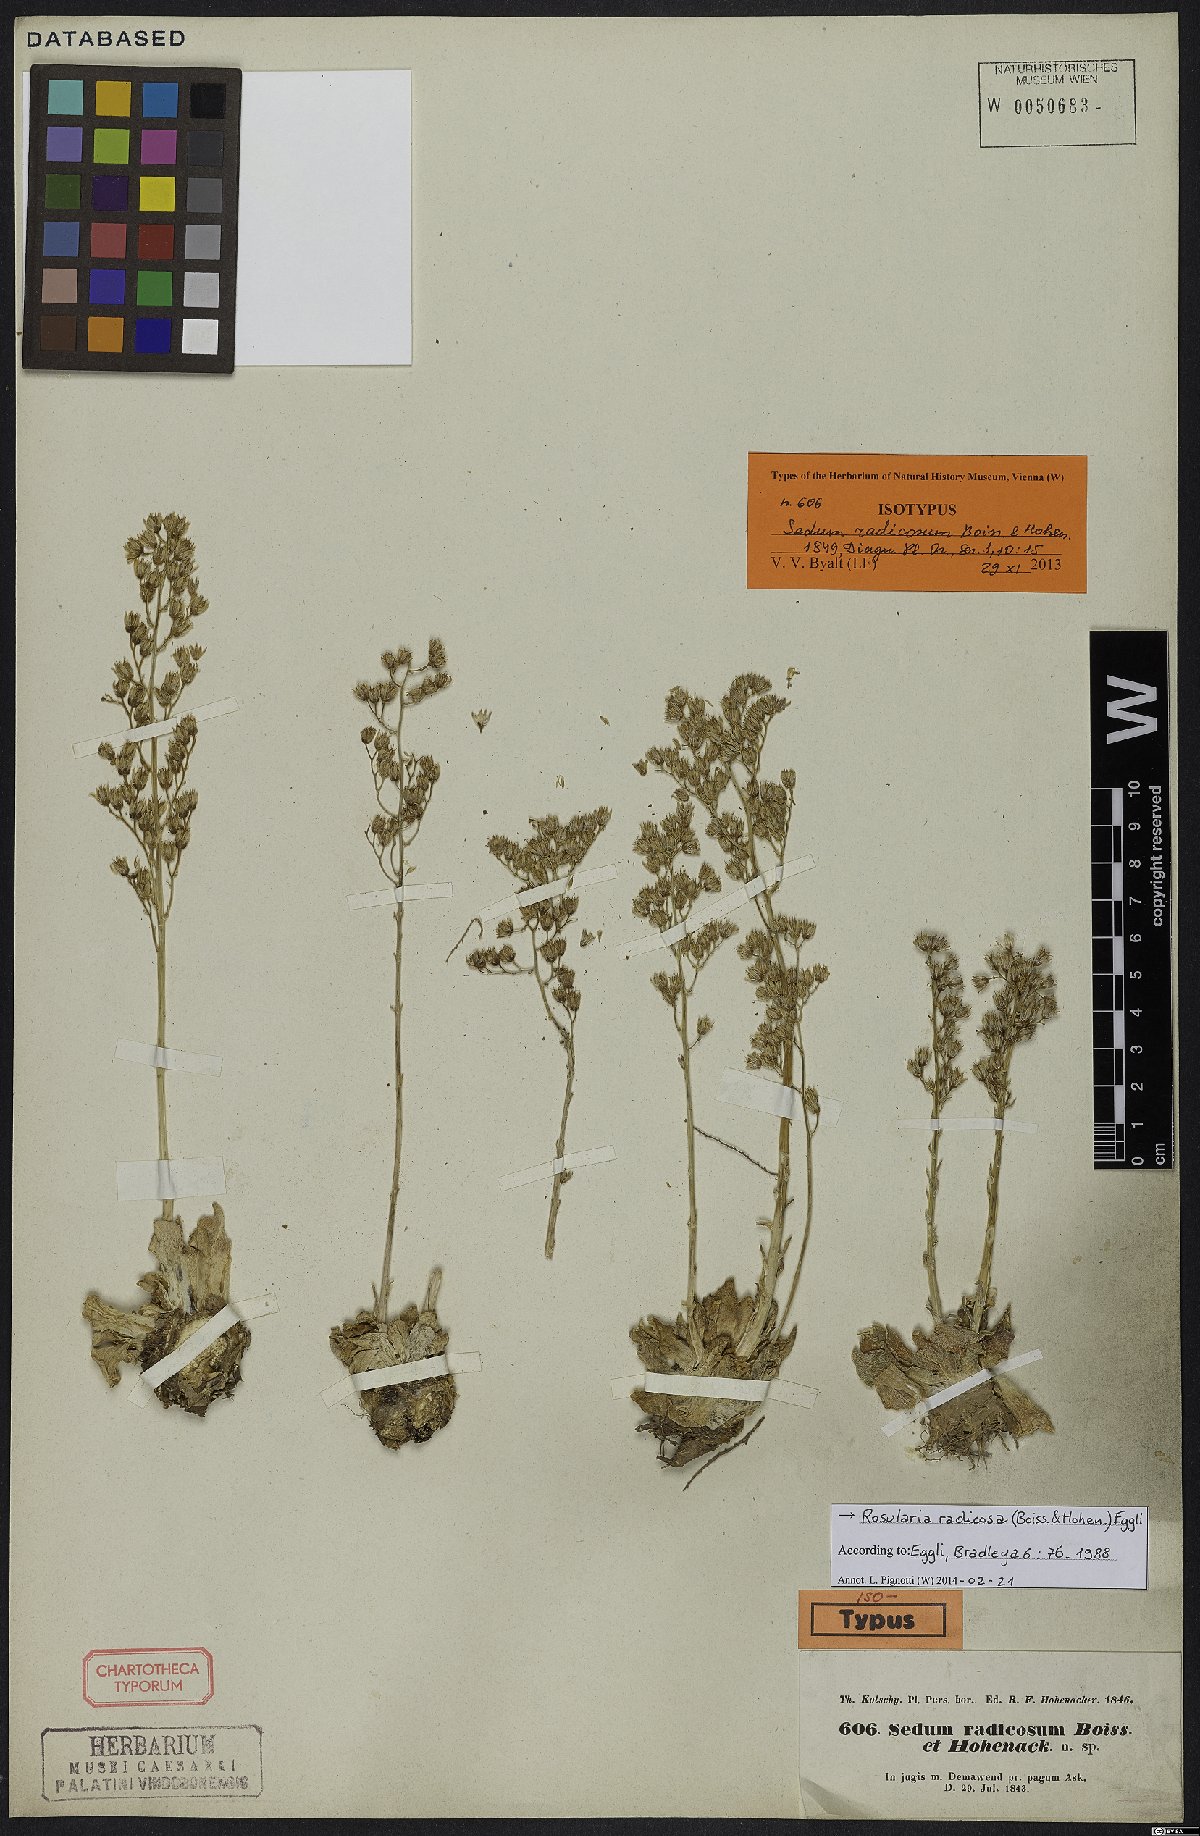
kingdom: Plantae
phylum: Tracheophyta
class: Magnoliopsida
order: Saxifragales
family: Crassulaceae
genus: Rosularia
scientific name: Rosularia radicosa
